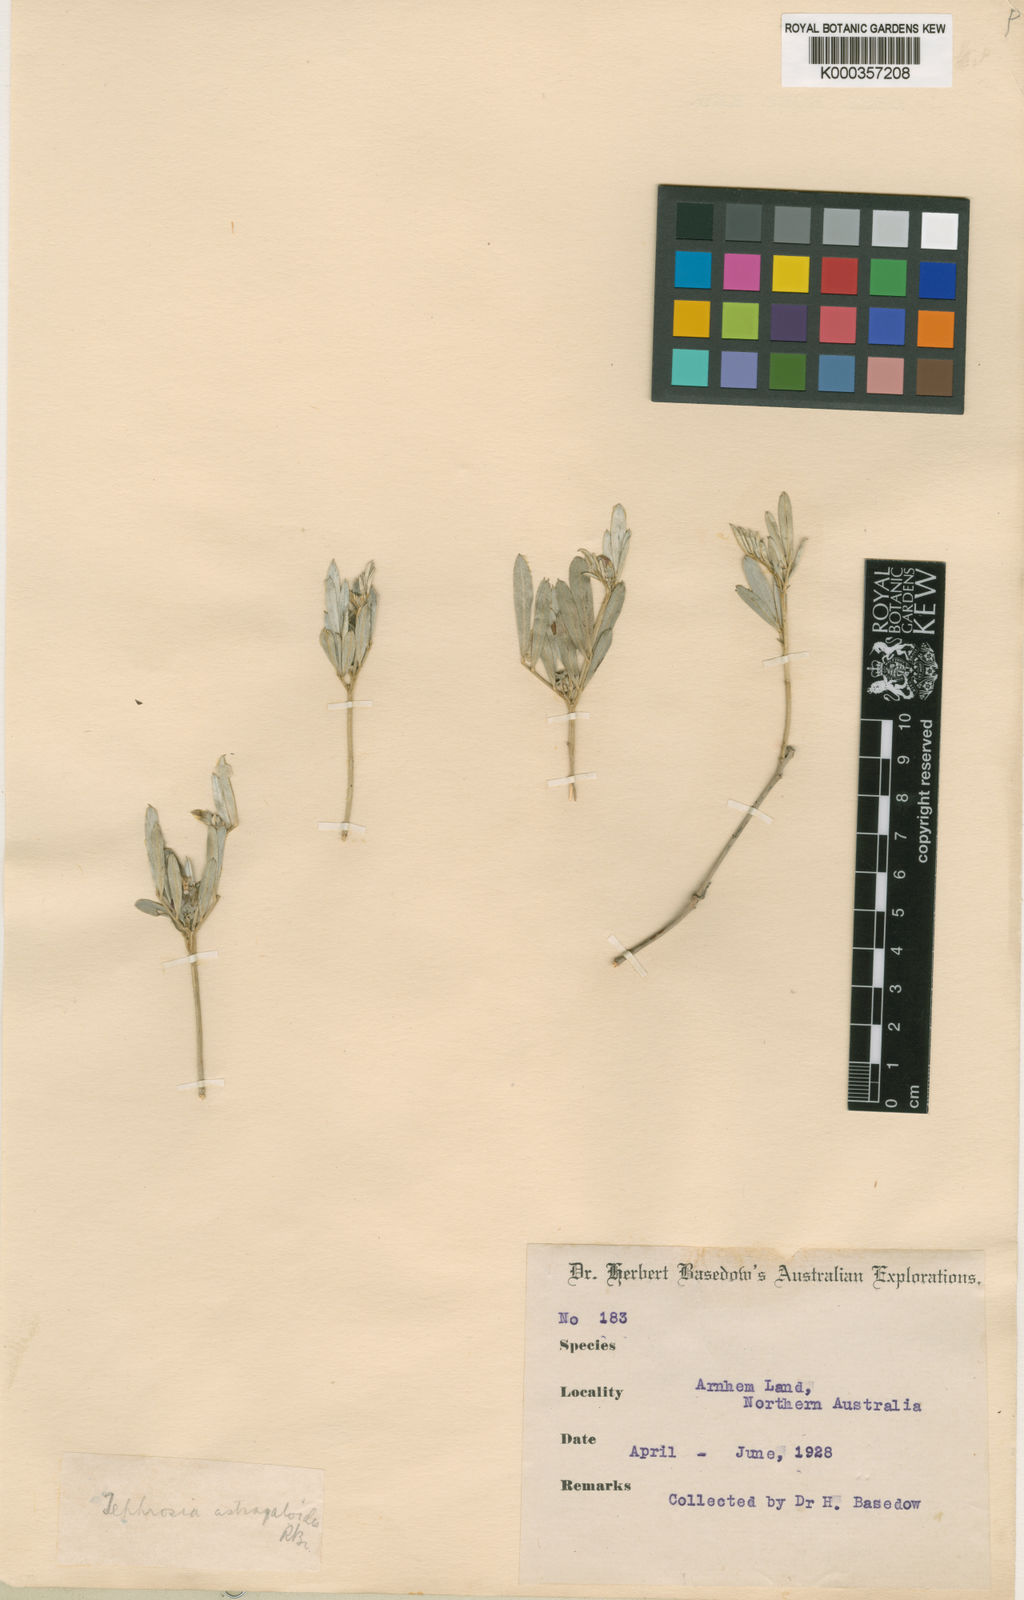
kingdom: Plantae
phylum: Tracheophyta
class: Magnoliopsida
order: Fabales
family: Fabaceae
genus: Tephrosia
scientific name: Tephrosia astragaloides
